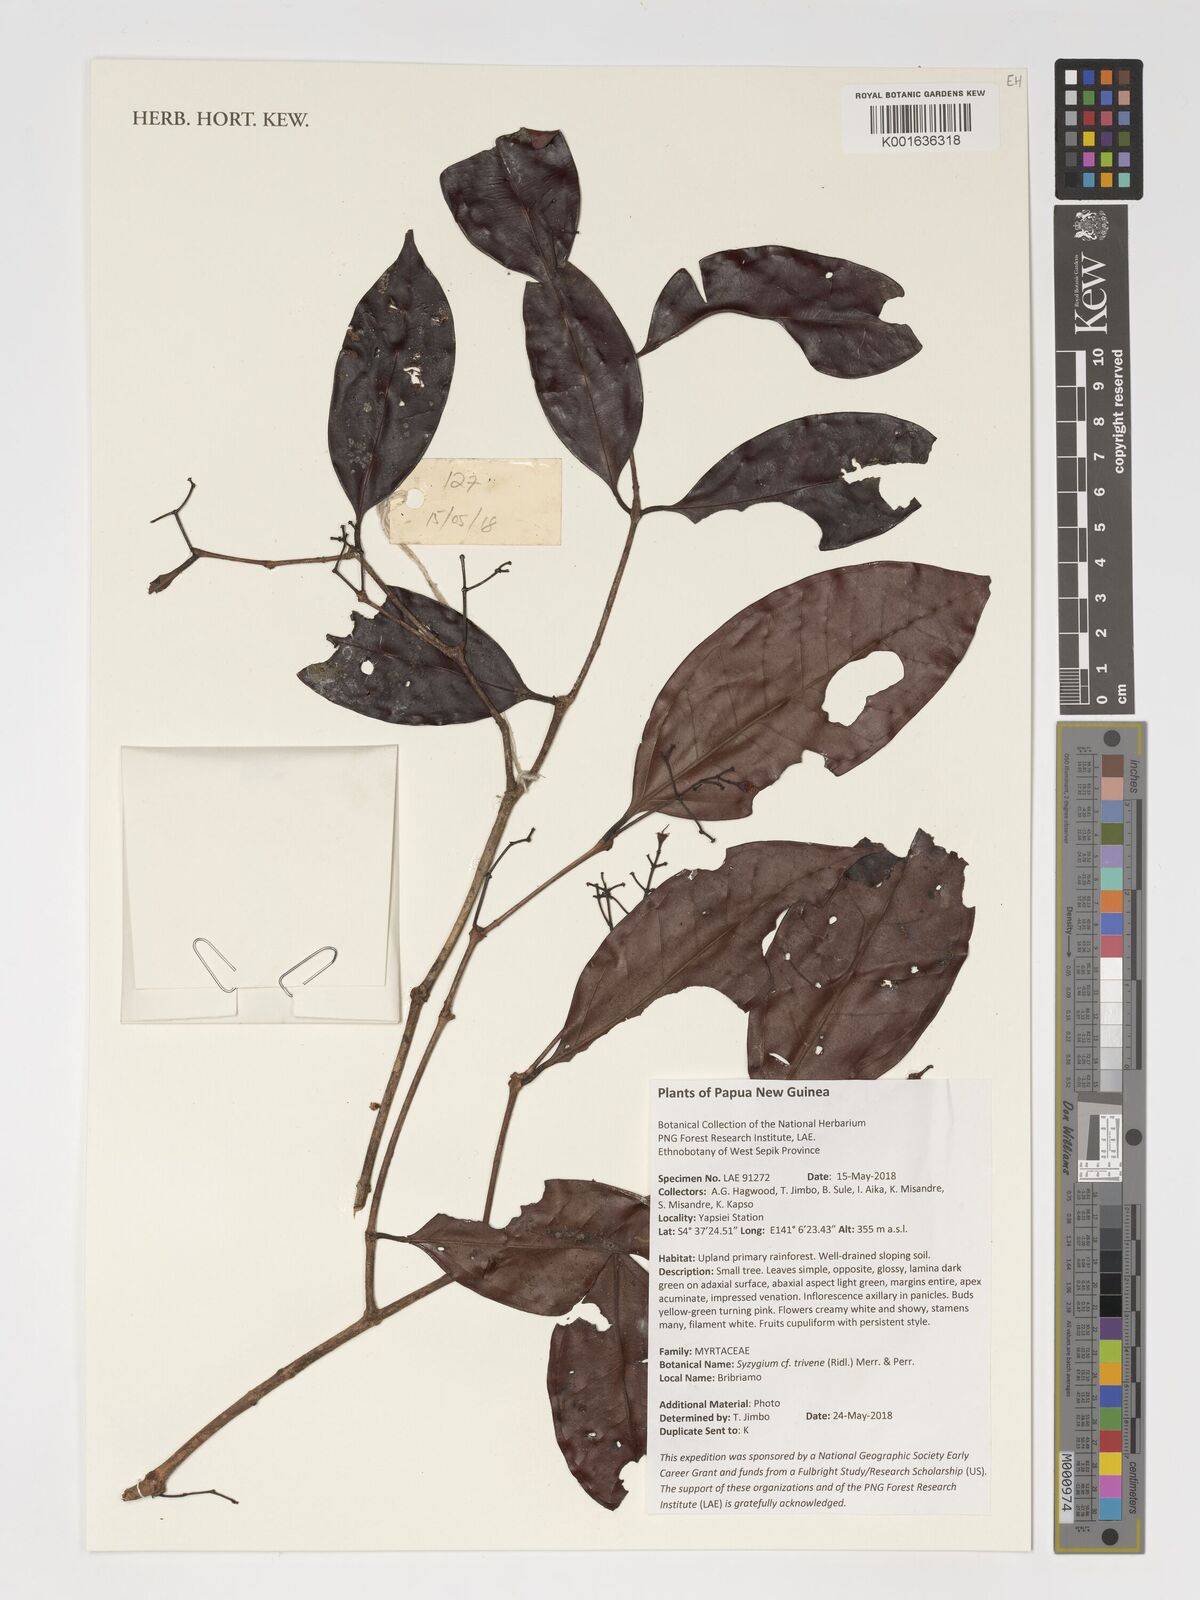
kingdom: Plantae
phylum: Tracheophyta
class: Magnoliopsida
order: Myrtales
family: Myrtaceae
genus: Syzygium
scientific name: Syzygium trivene
